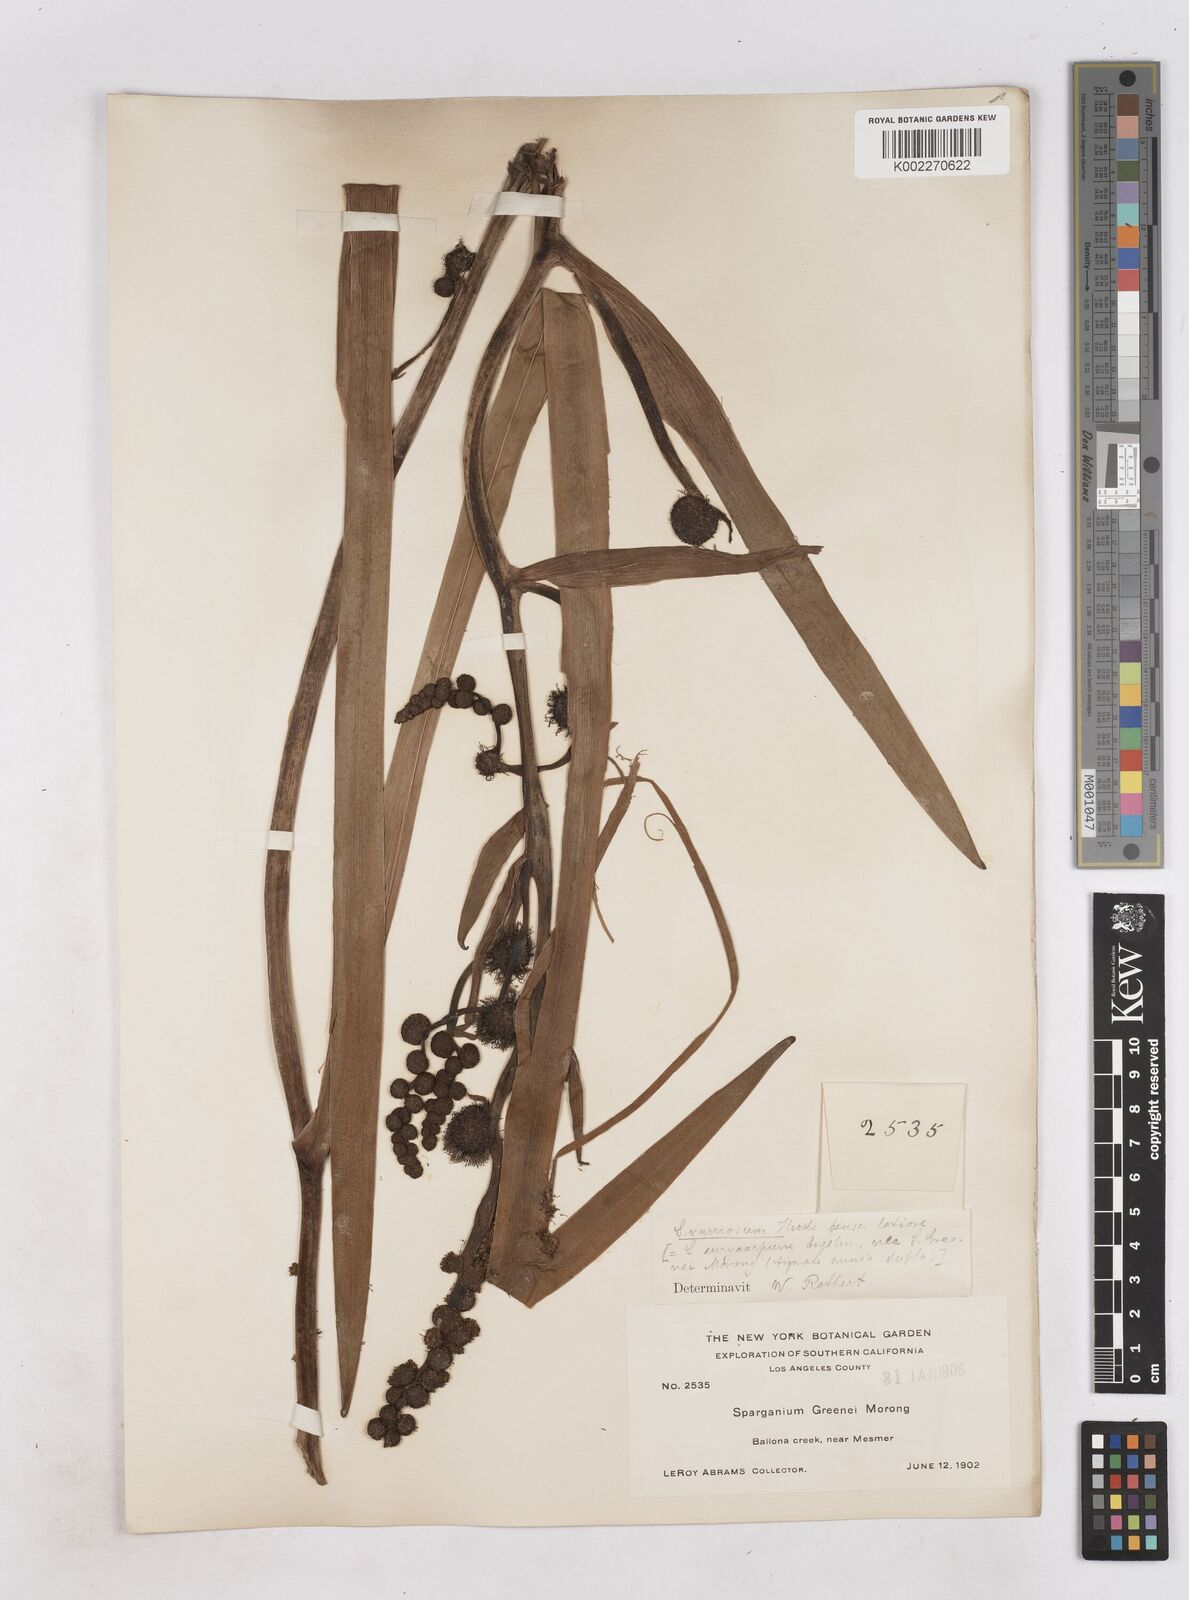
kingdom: Plantae
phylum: Tracheophyta
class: Liliopsida
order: Poales
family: Typhaceae
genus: Sparganium
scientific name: Sparganium eurycarpum
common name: Broad-fruited burreed
